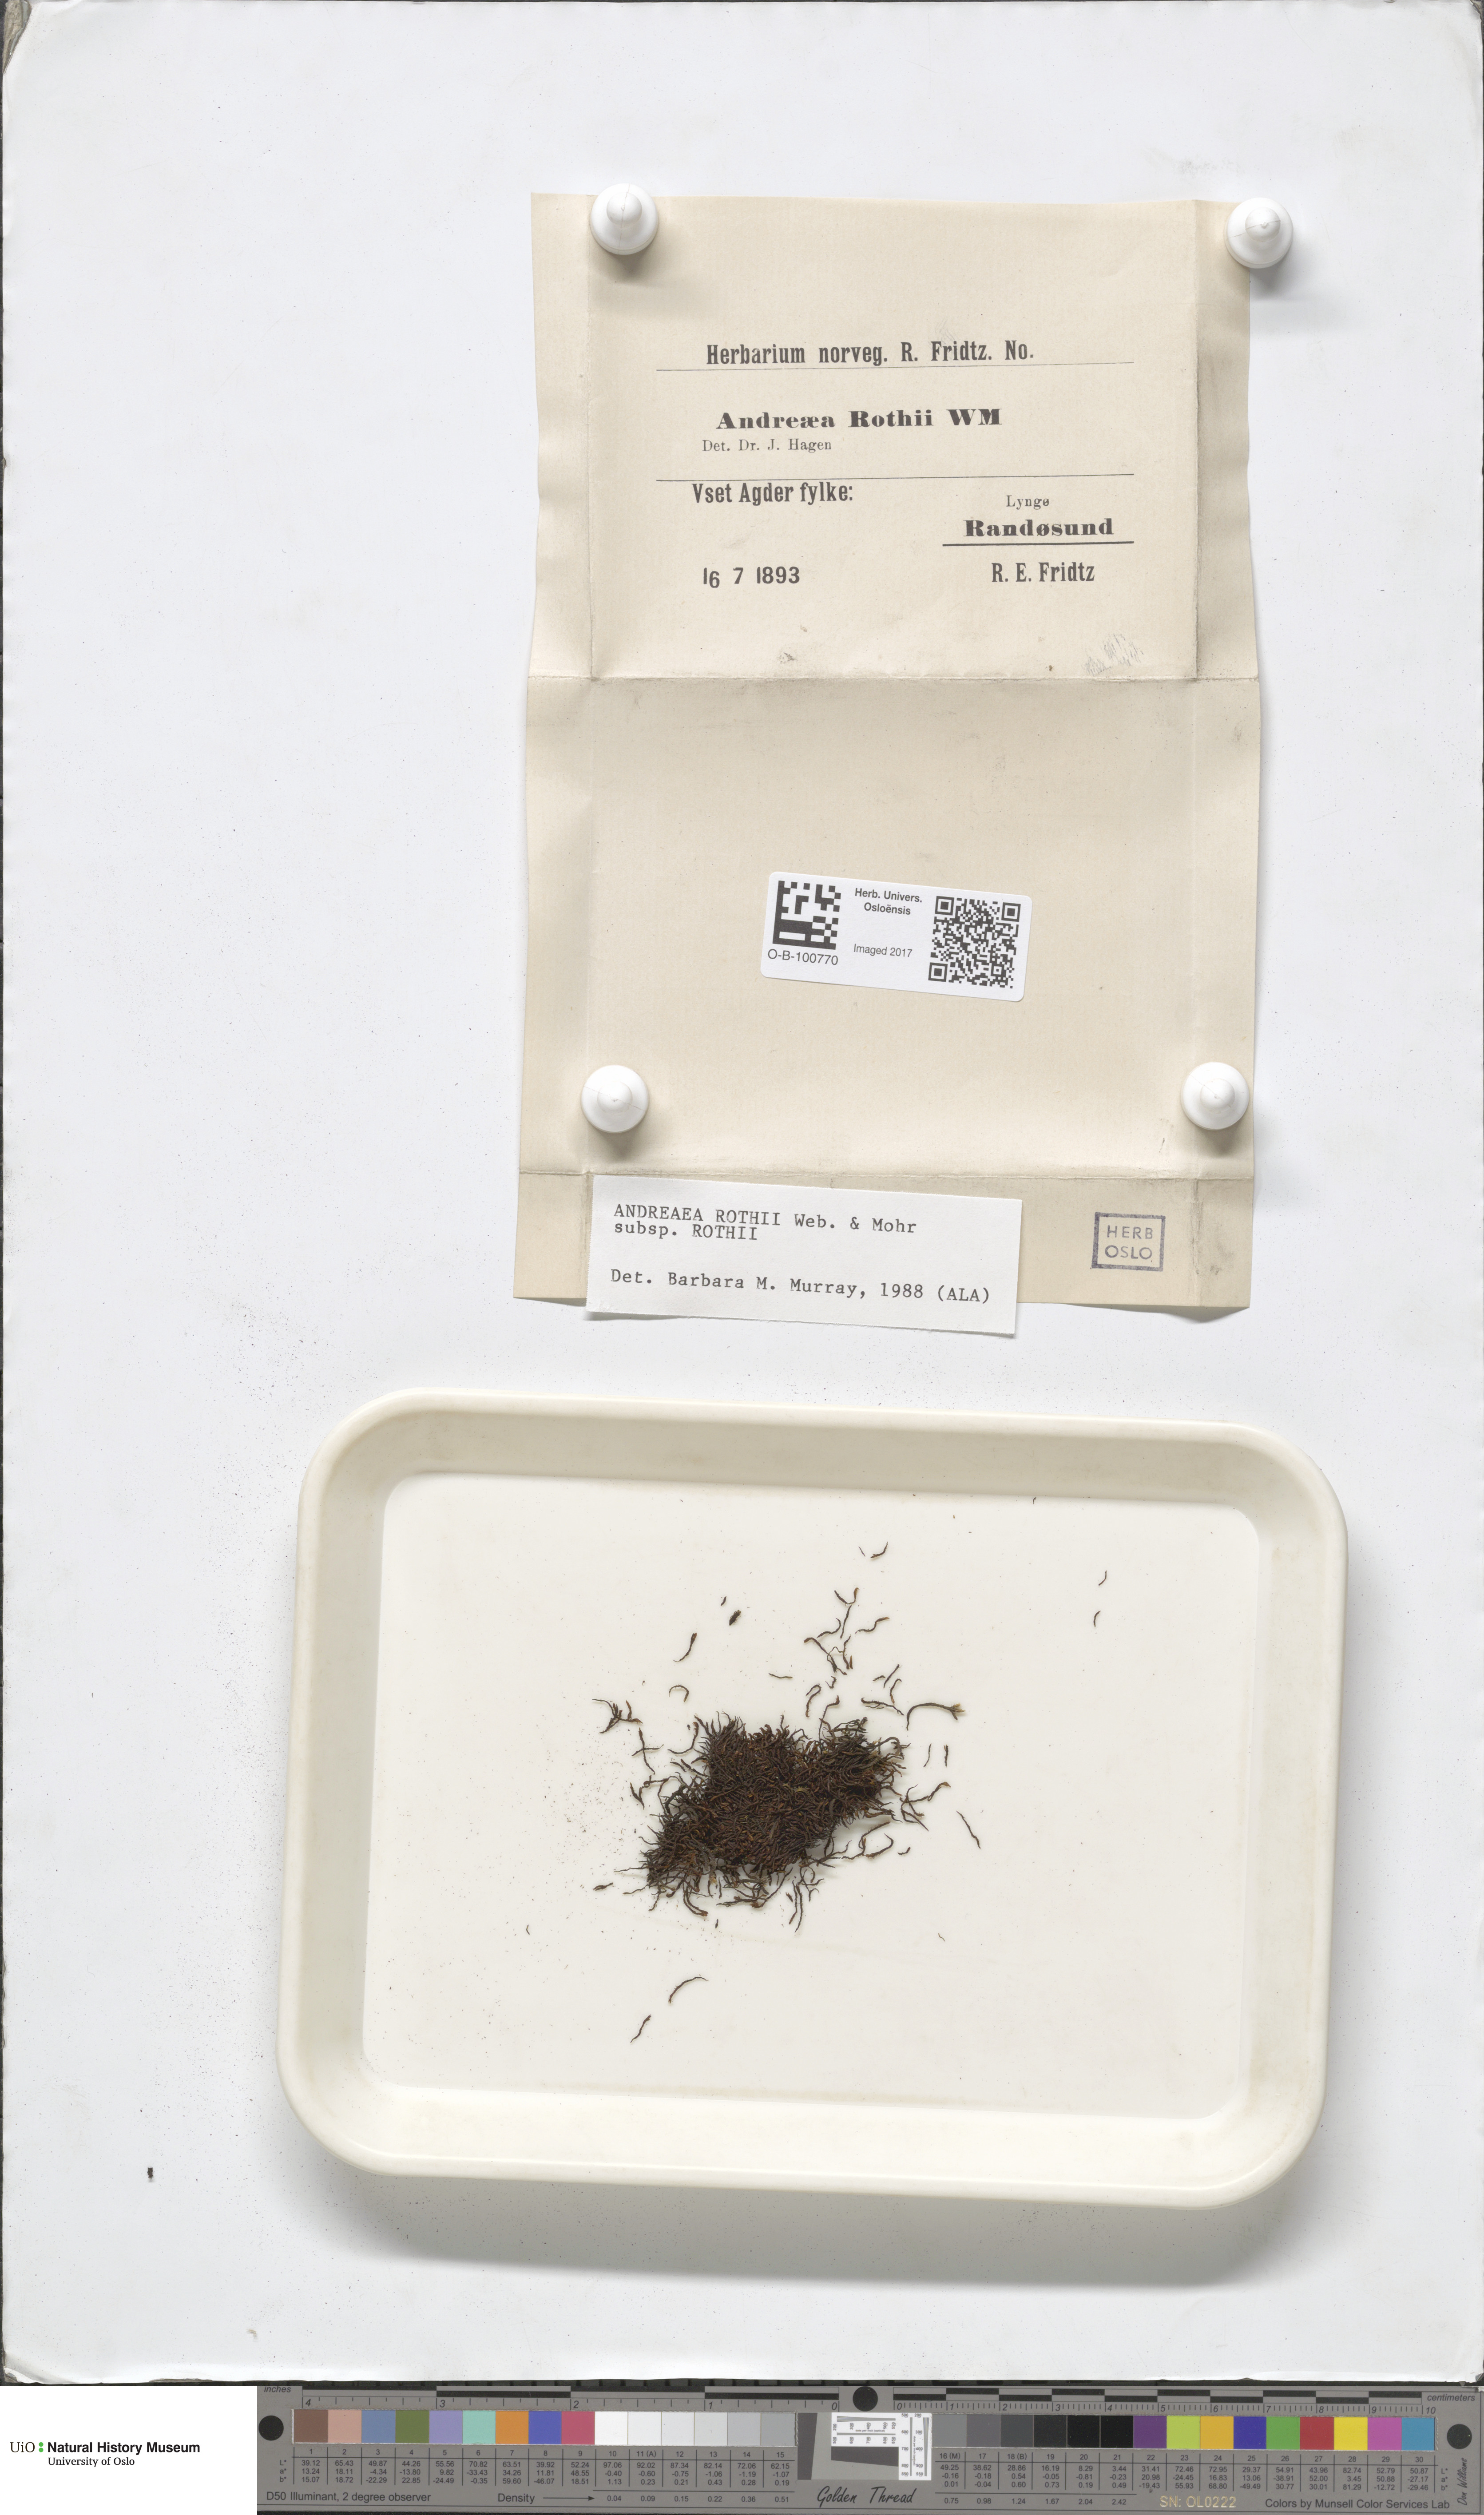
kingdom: Plantae
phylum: Bryophyta
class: Andreaeopsida
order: Andreaeales
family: Andreaeaceae
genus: Andreaea
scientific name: Andreaea rothii
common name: Dusky rock moss
